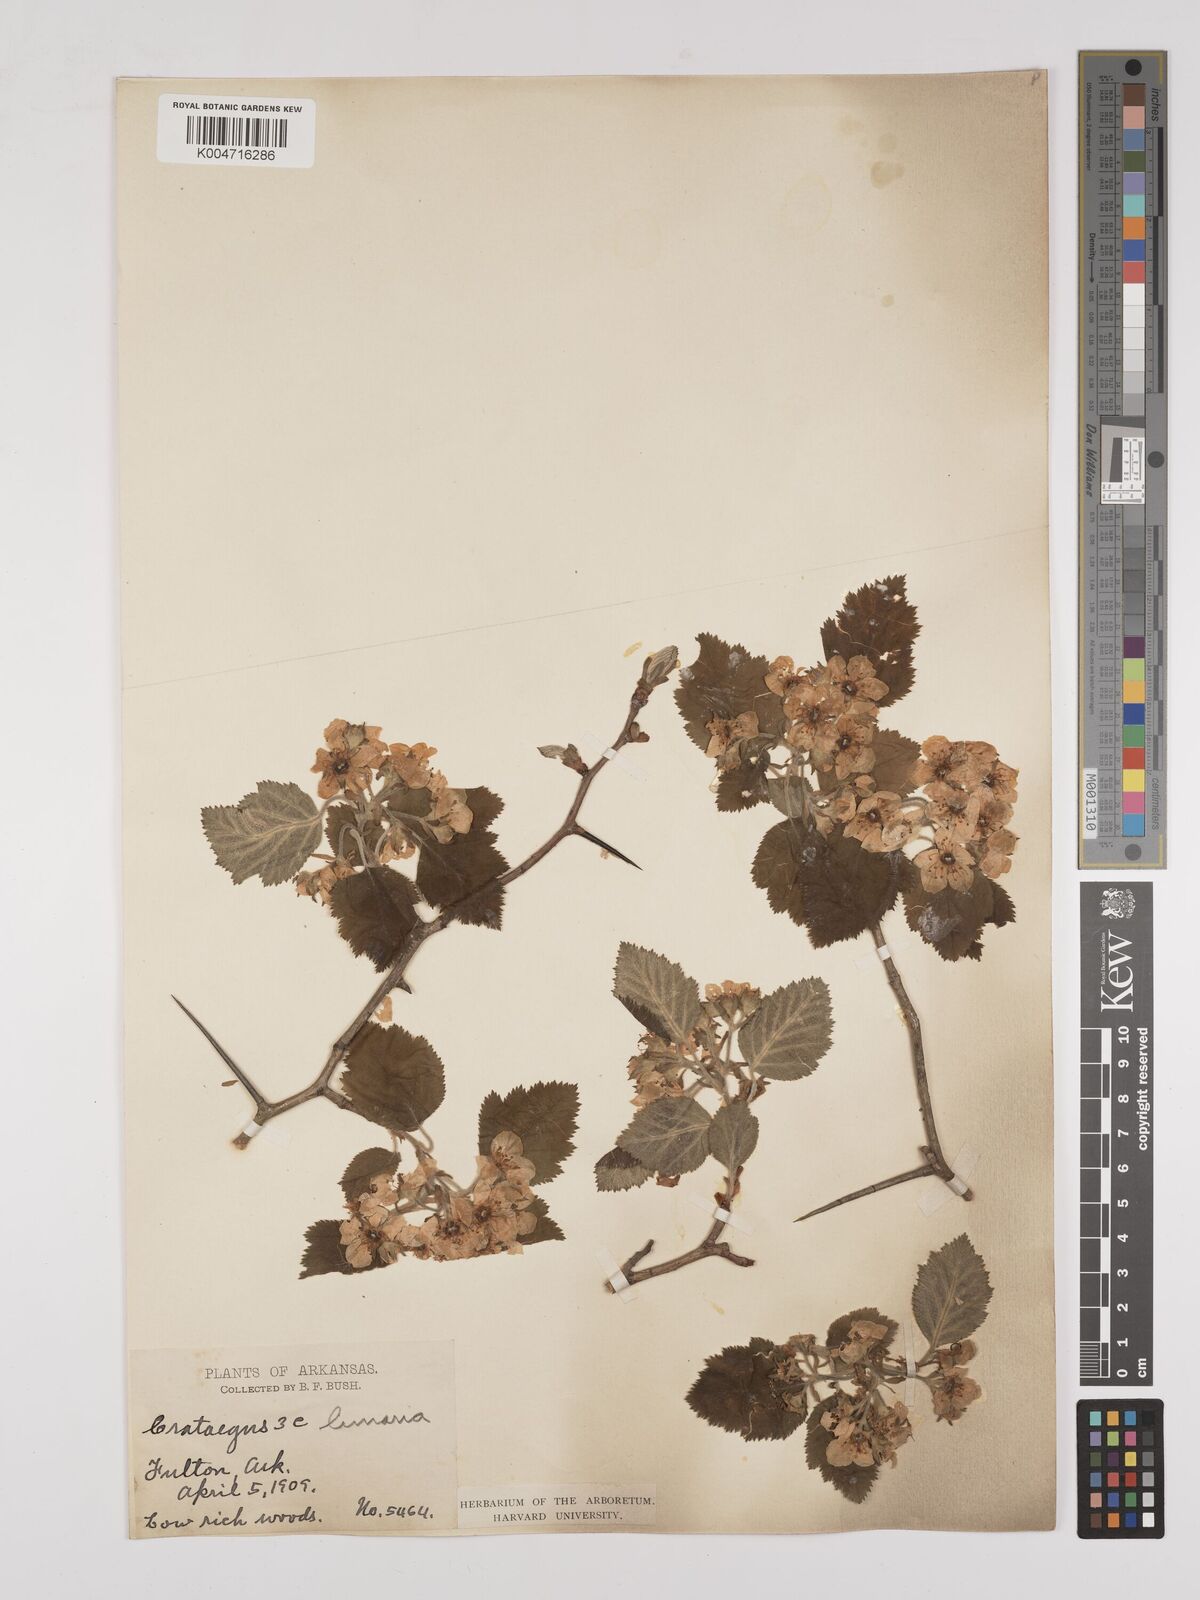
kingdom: Plantae
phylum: Tracheophyta
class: Magnoliopsida
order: Rosales
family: Rosaceae
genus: Crataegus
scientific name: Crataegus mollis
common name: Downy hawthorn
